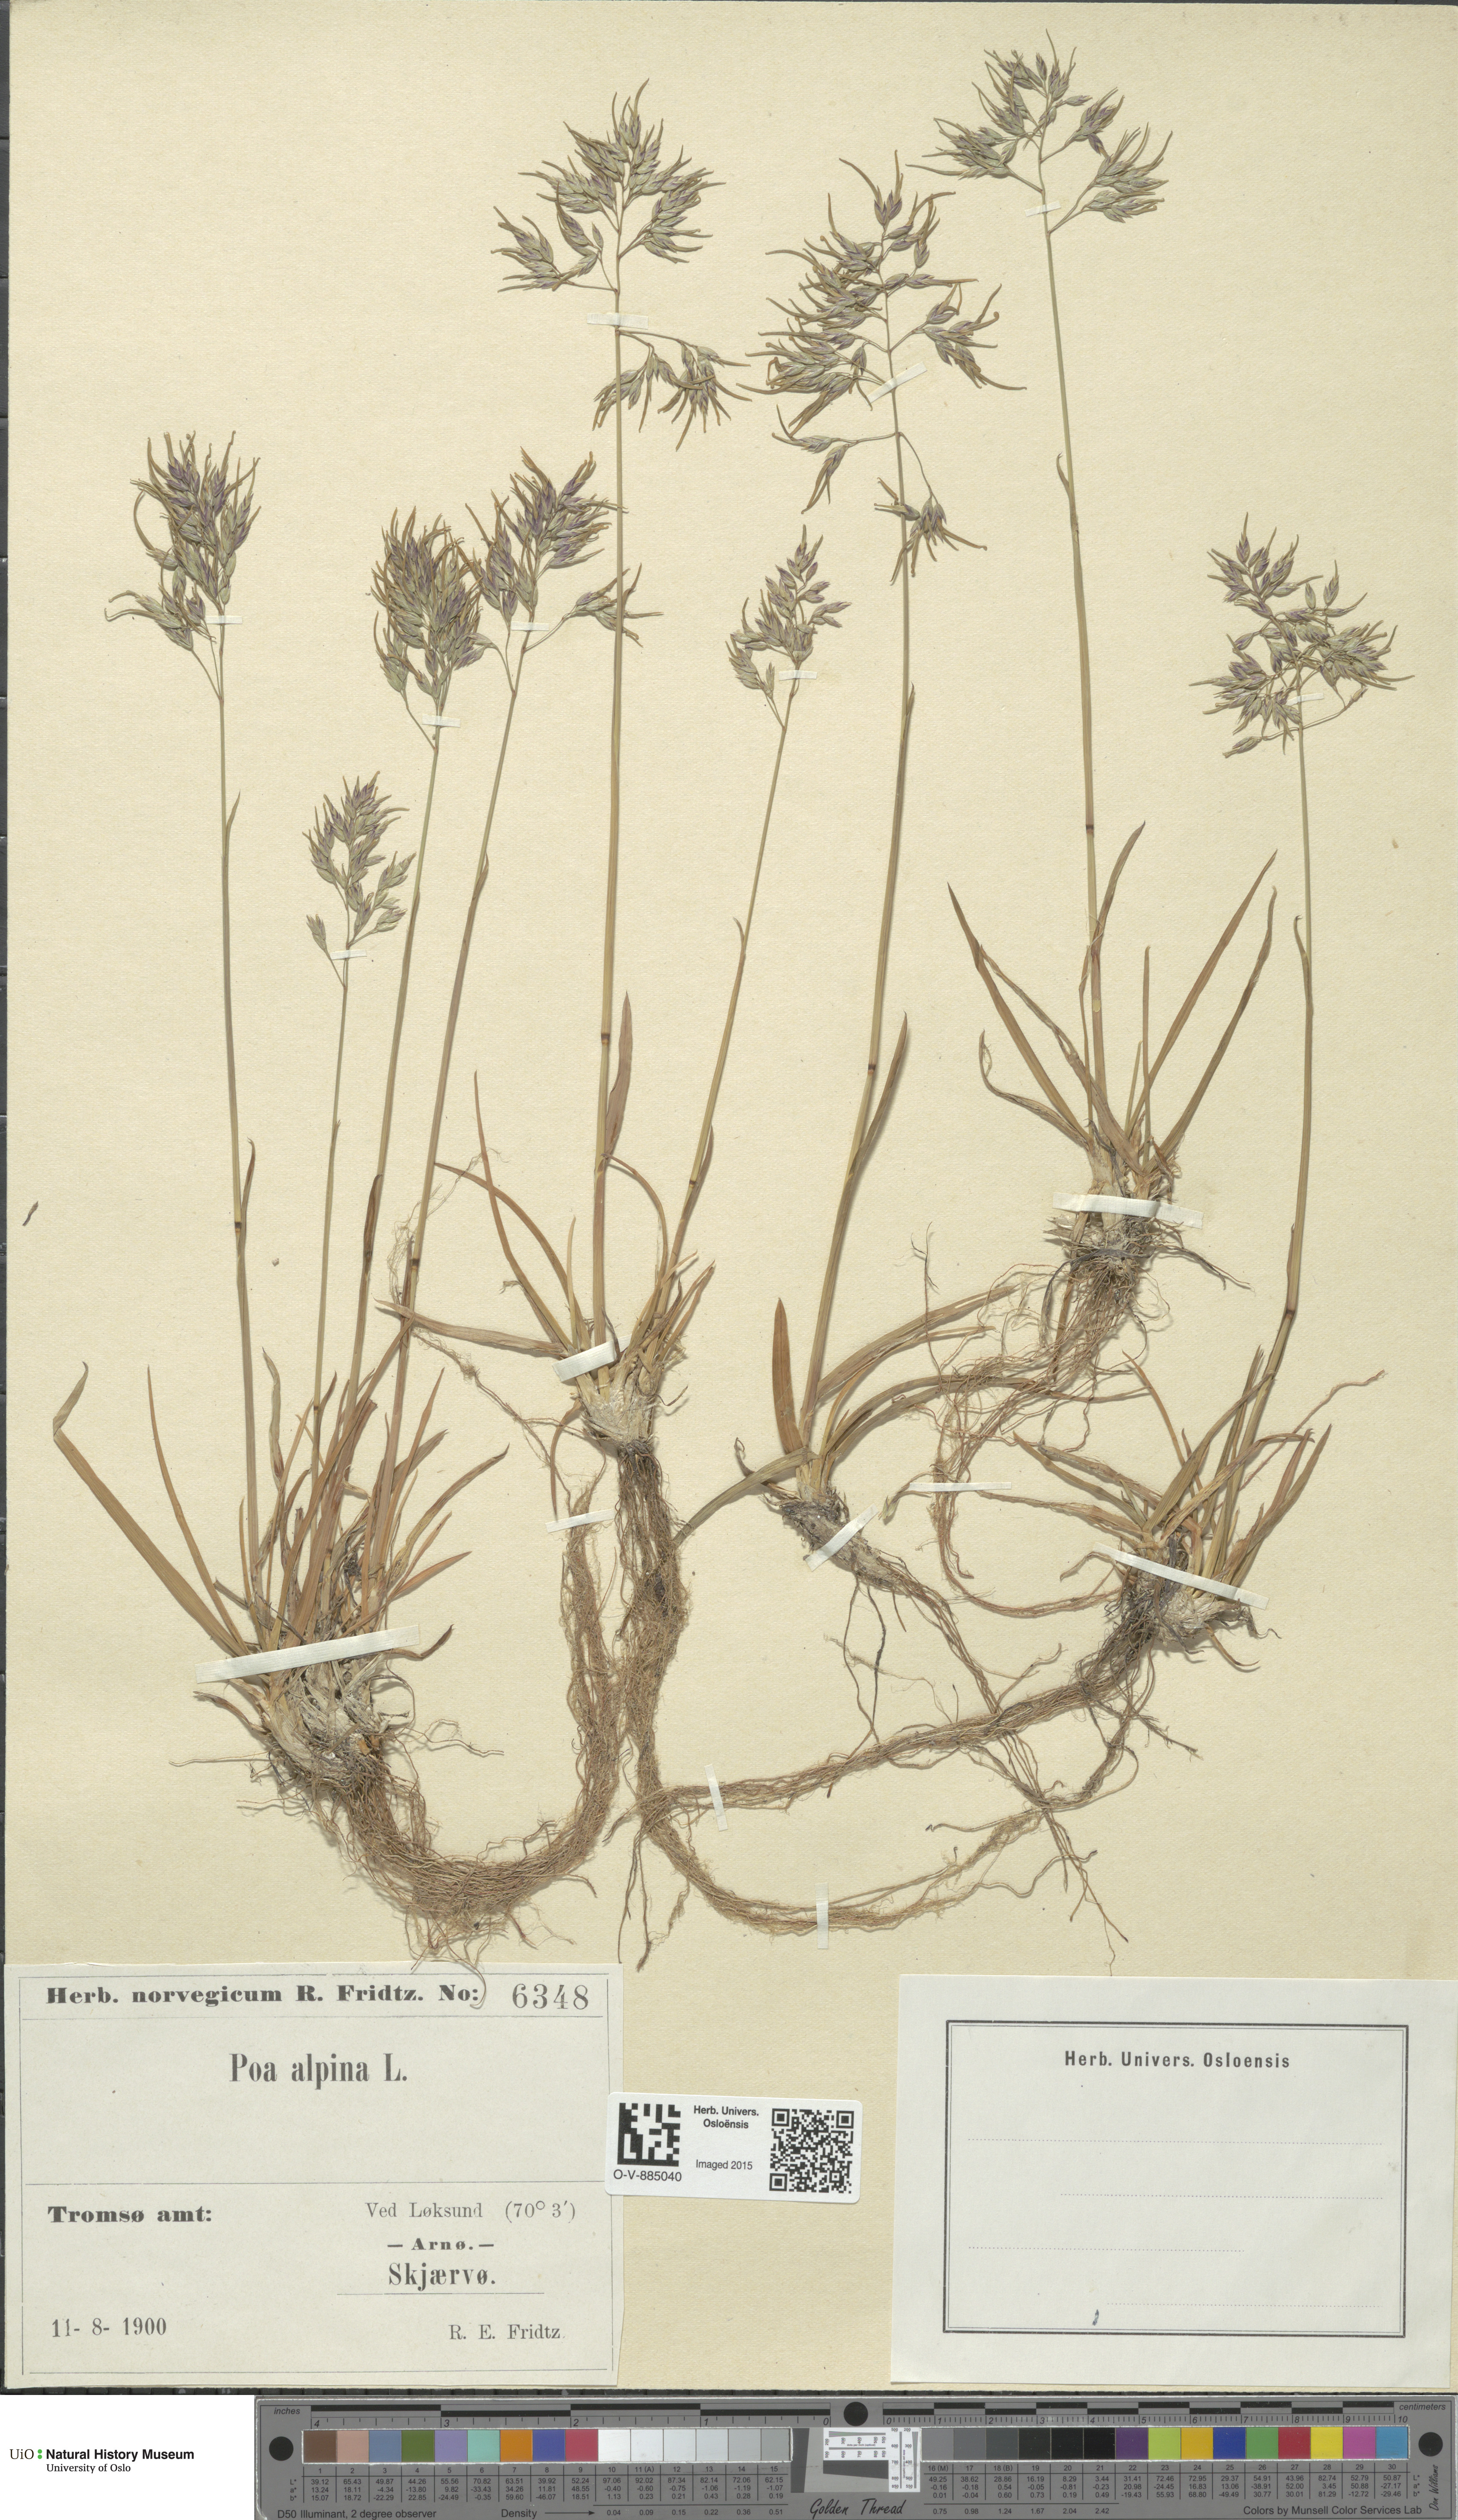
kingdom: Plantae
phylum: Tracheophyta
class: Liliopsida
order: Poales
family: Poaceae
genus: Poa
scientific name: Poa alpina
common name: Alpine bluegrass
